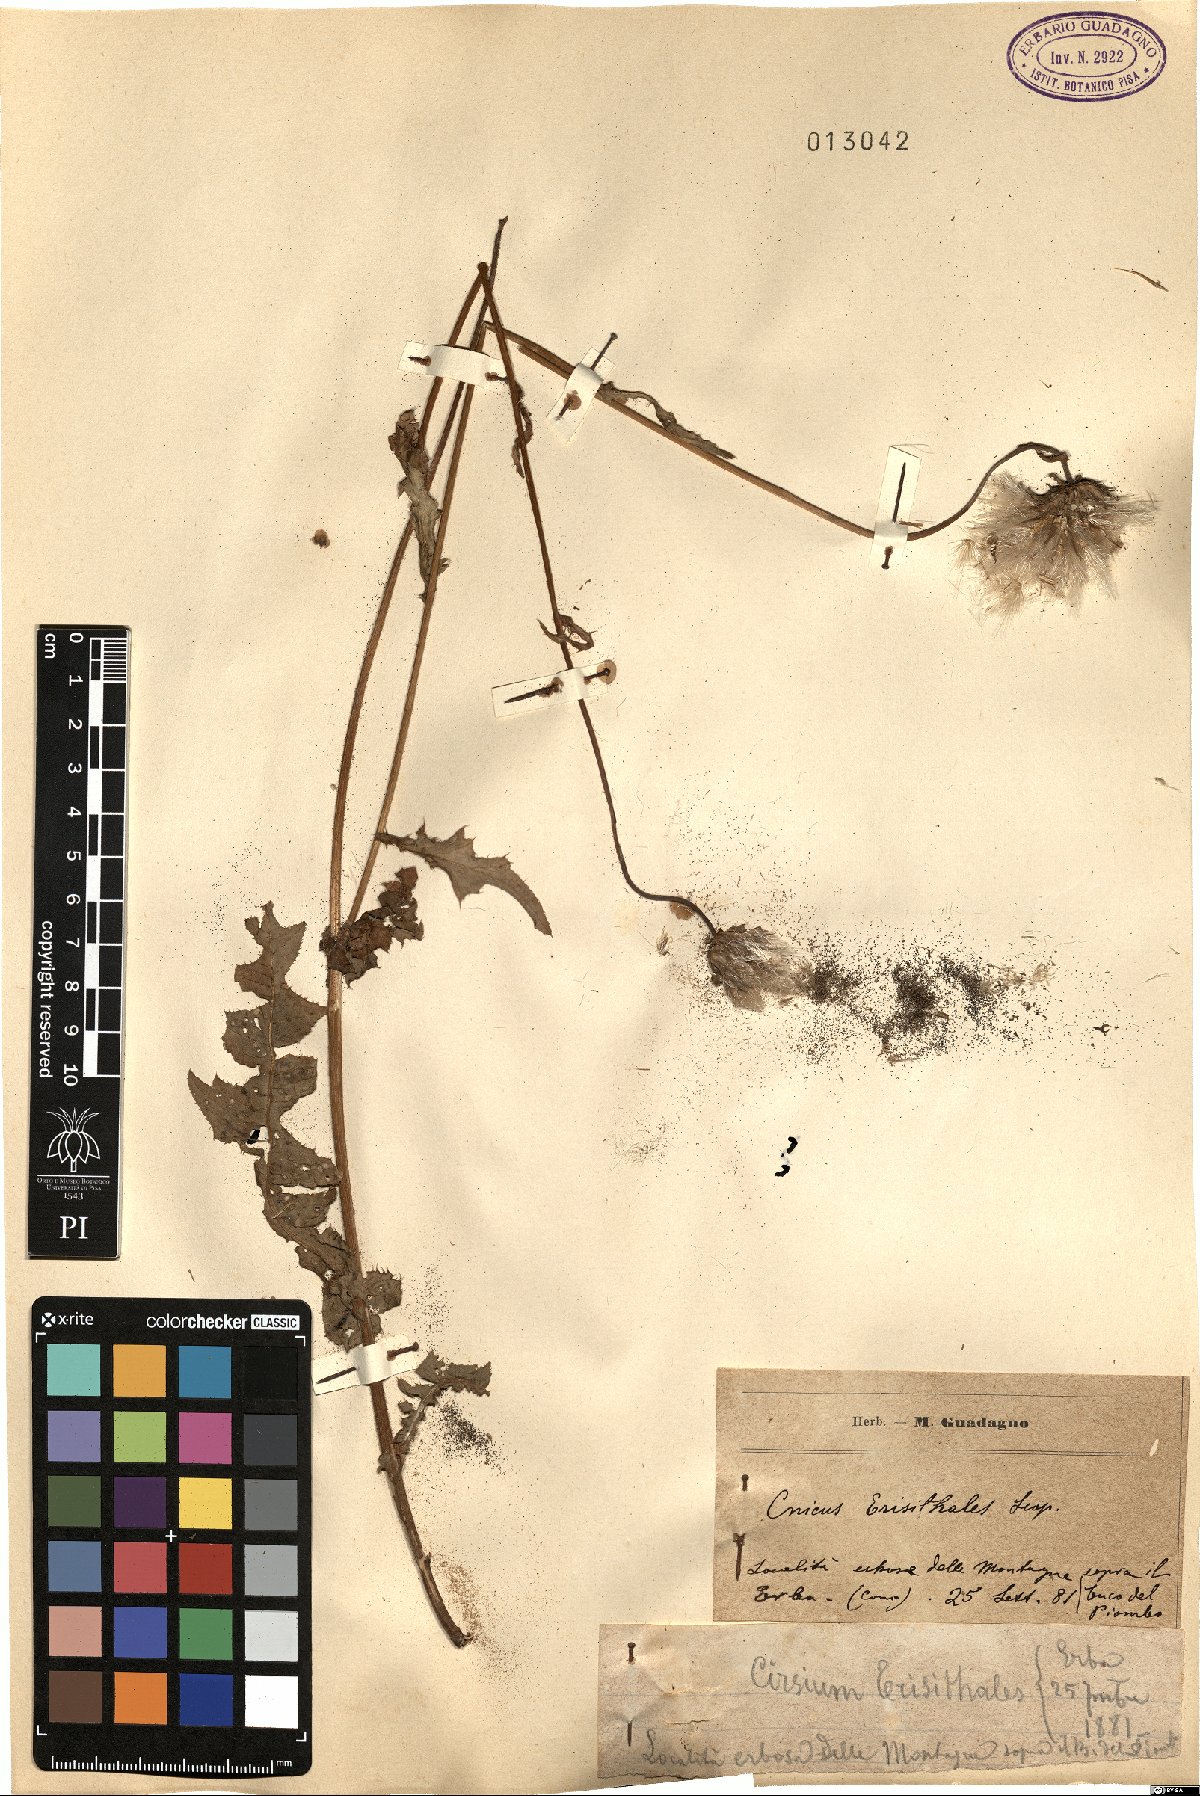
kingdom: Plantae
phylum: Tracheophyta
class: Magnoliopsida
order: Asterales
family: Asteraceae
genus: Cirsium
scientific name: Cirsium erisithales
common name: Yellow thistle
